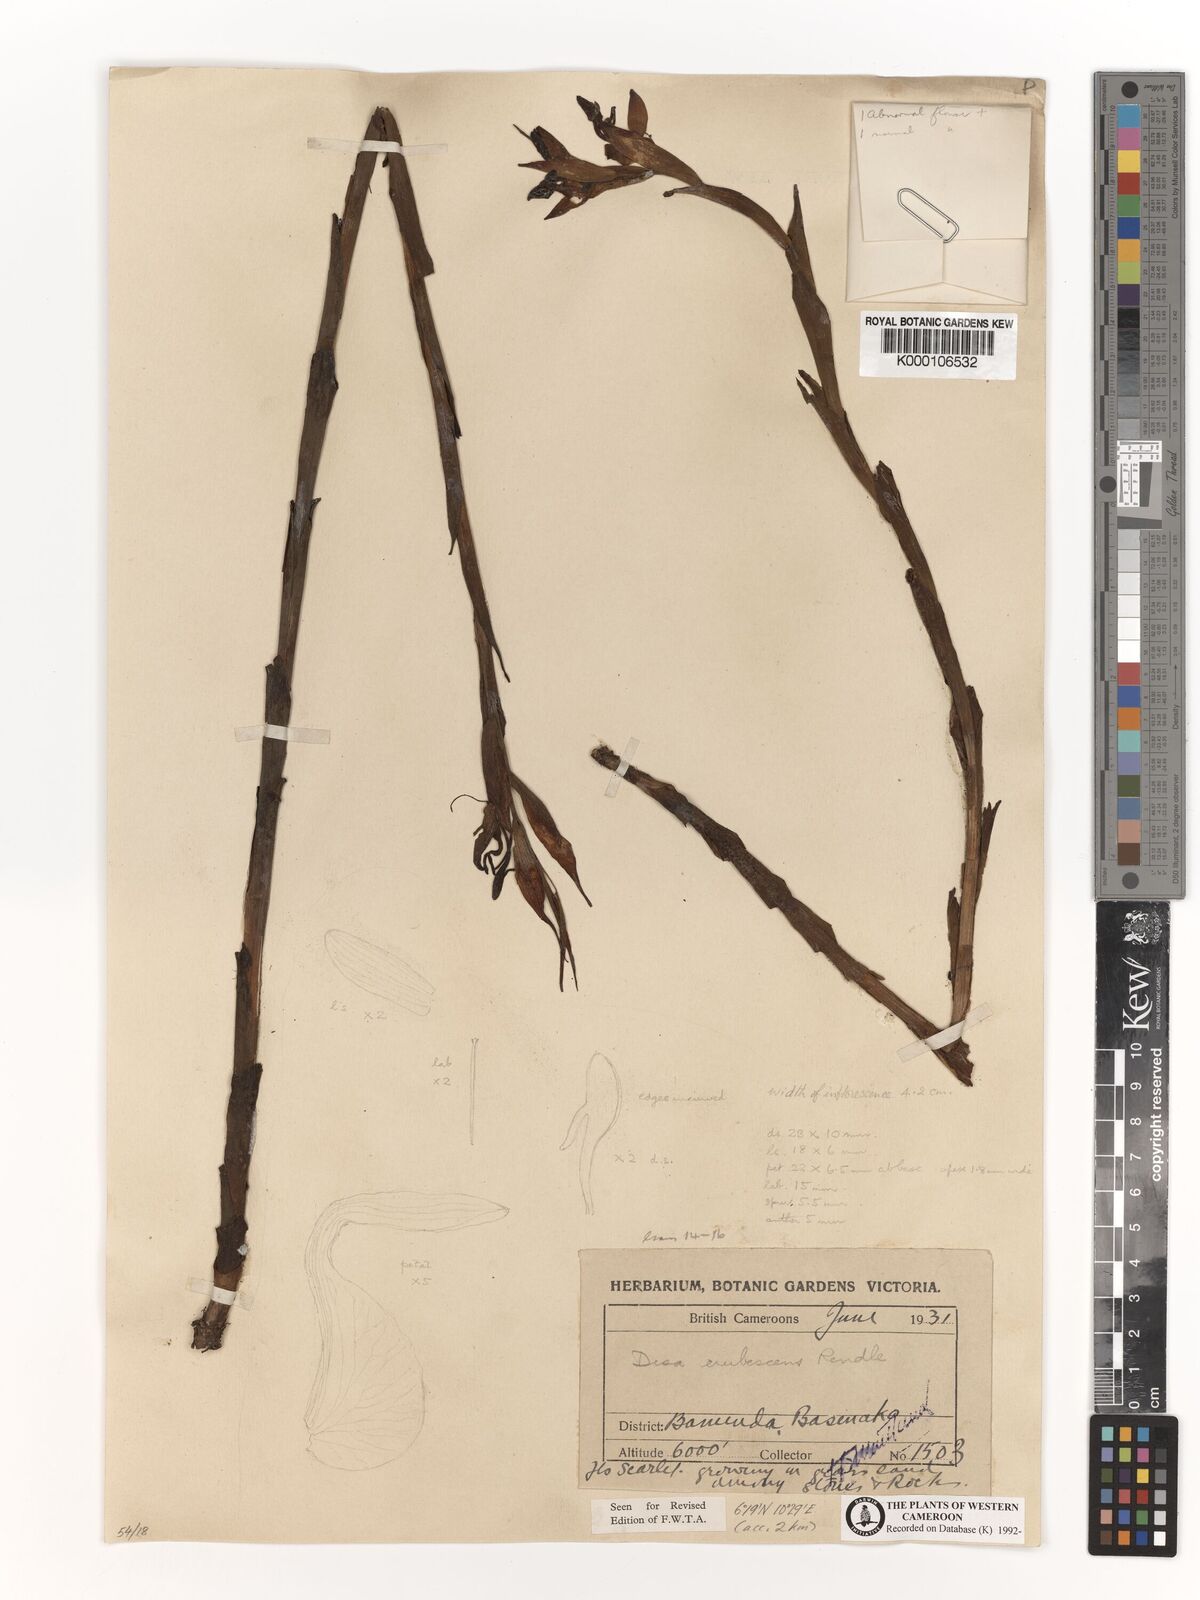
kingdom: Plantae
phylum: Tracheophyta
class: Liliopsida
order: Asparagales
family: Orchidaceae
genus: Disa
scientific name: Disa erubescens
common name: The rose disa
